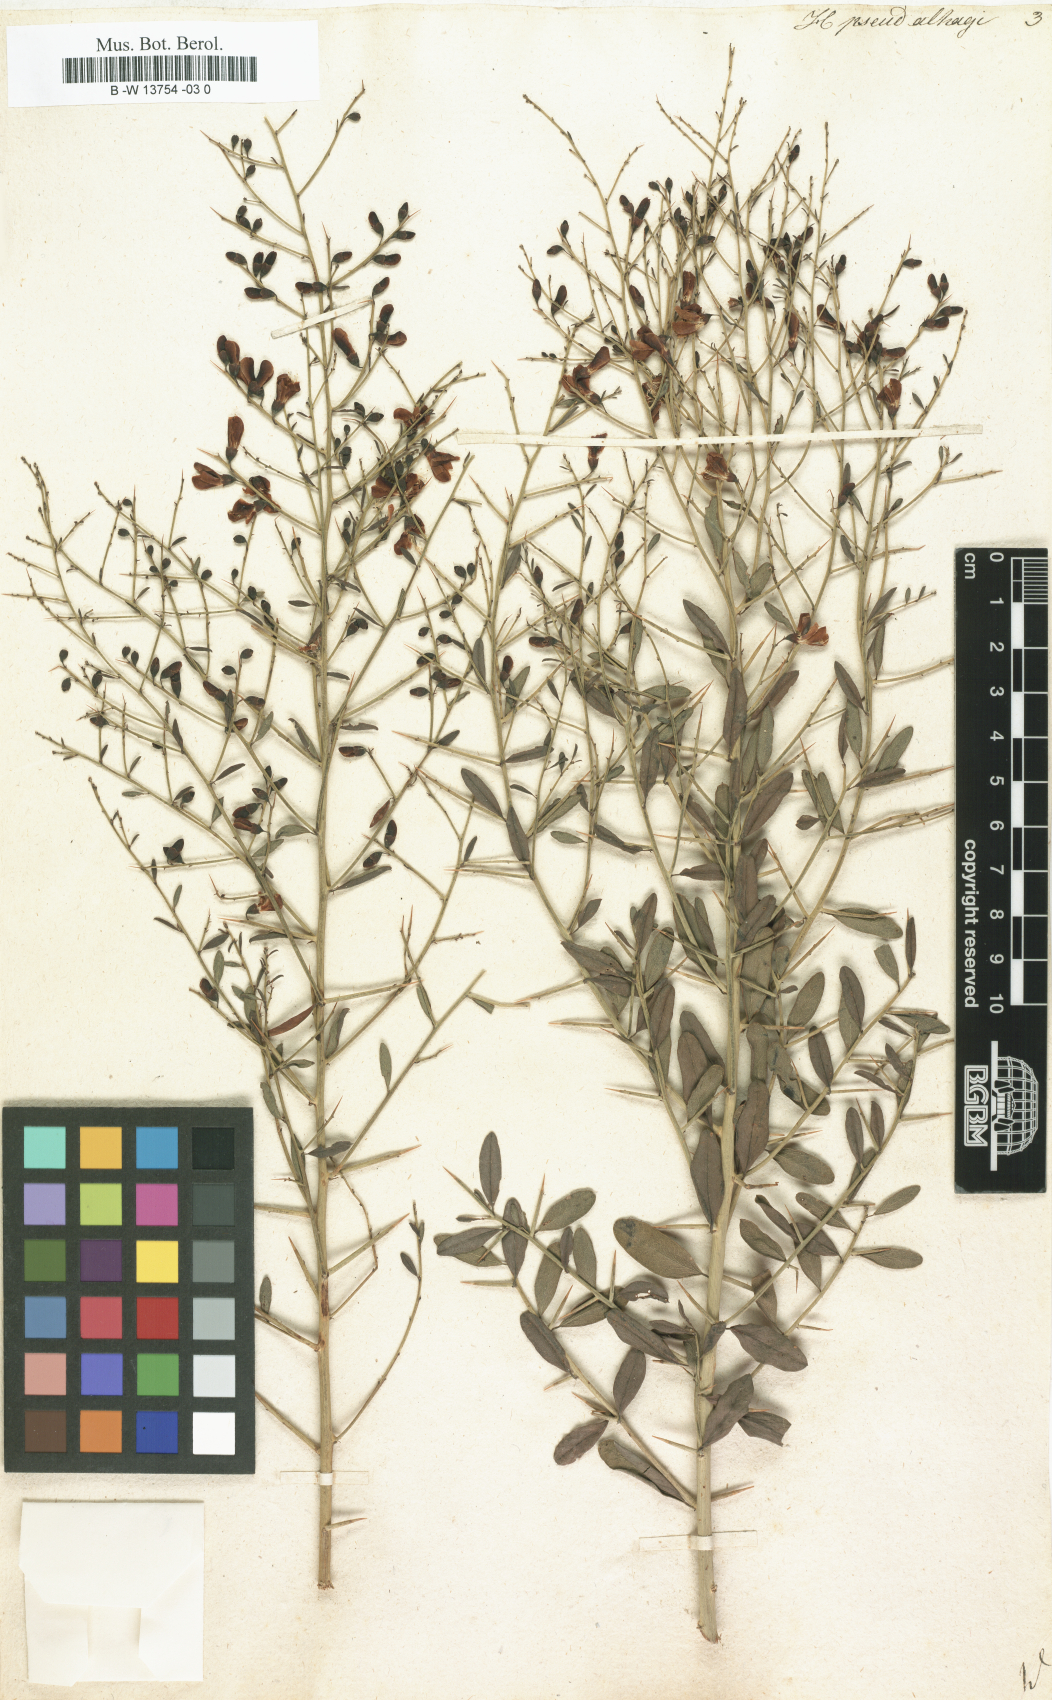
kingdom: Plantae
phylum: Tracheophyta
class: Magnoliopsida
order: Fabales
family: Fabaceae
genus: Alhagi
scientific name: Alhagi pseudalhagi
